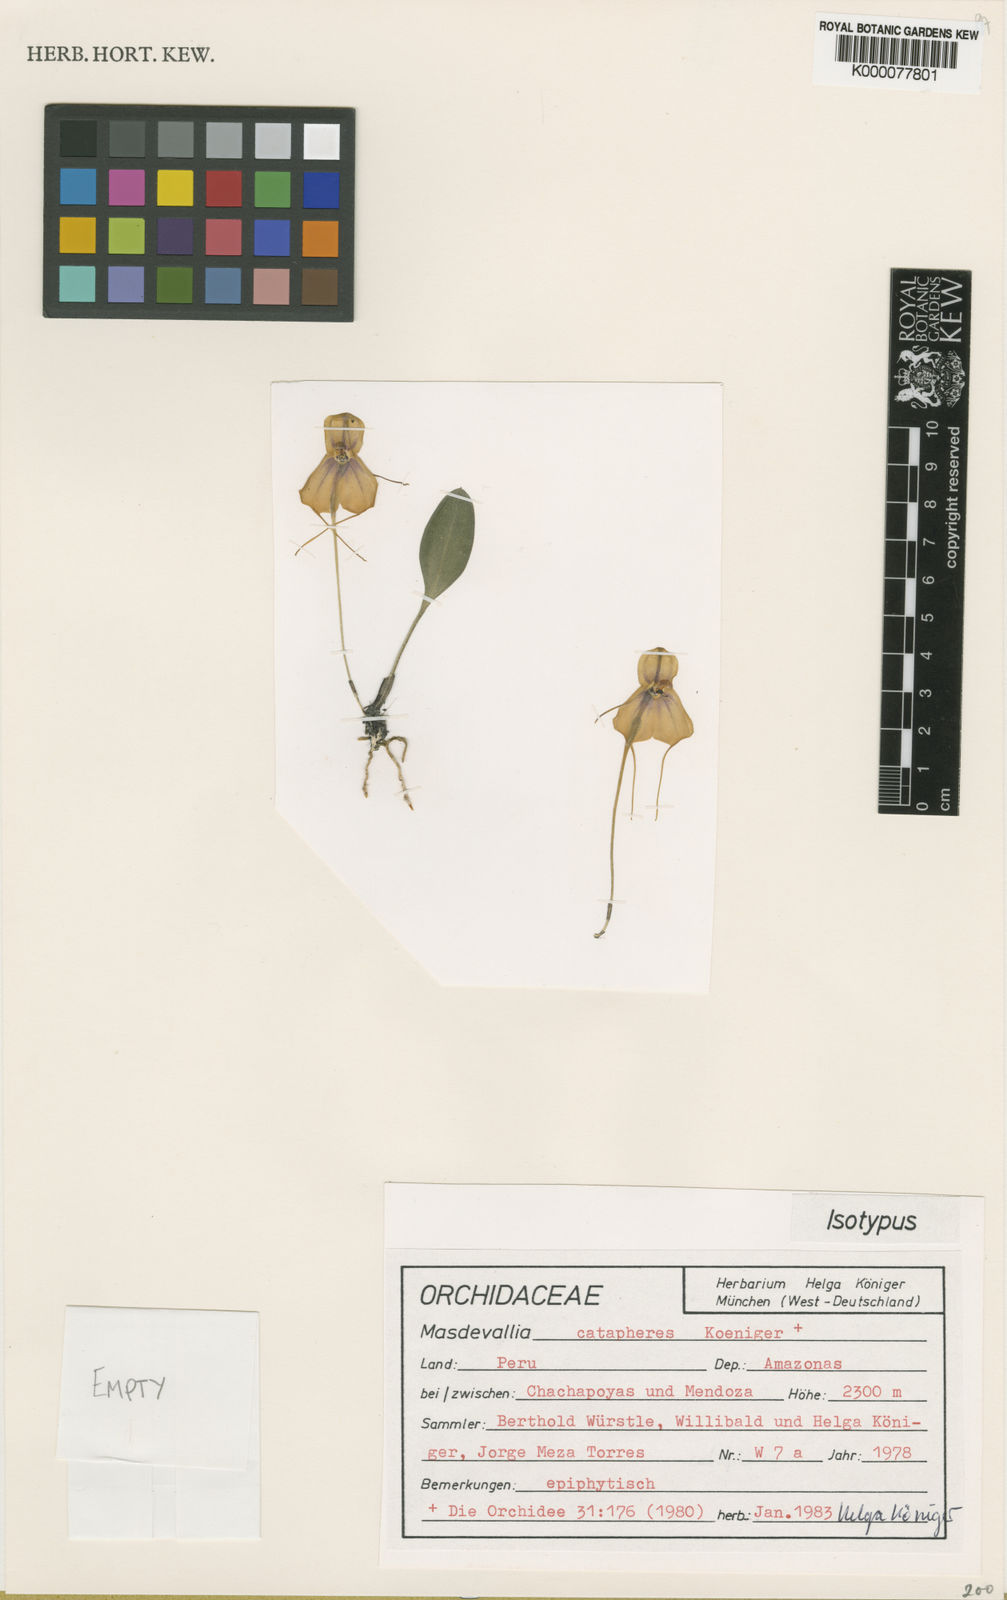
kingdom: Plantae
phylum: Tracheophyta
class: Liliopsida
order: Asparagales
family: Orchidaceae
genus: Masdevallia
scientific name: Masdevallia
